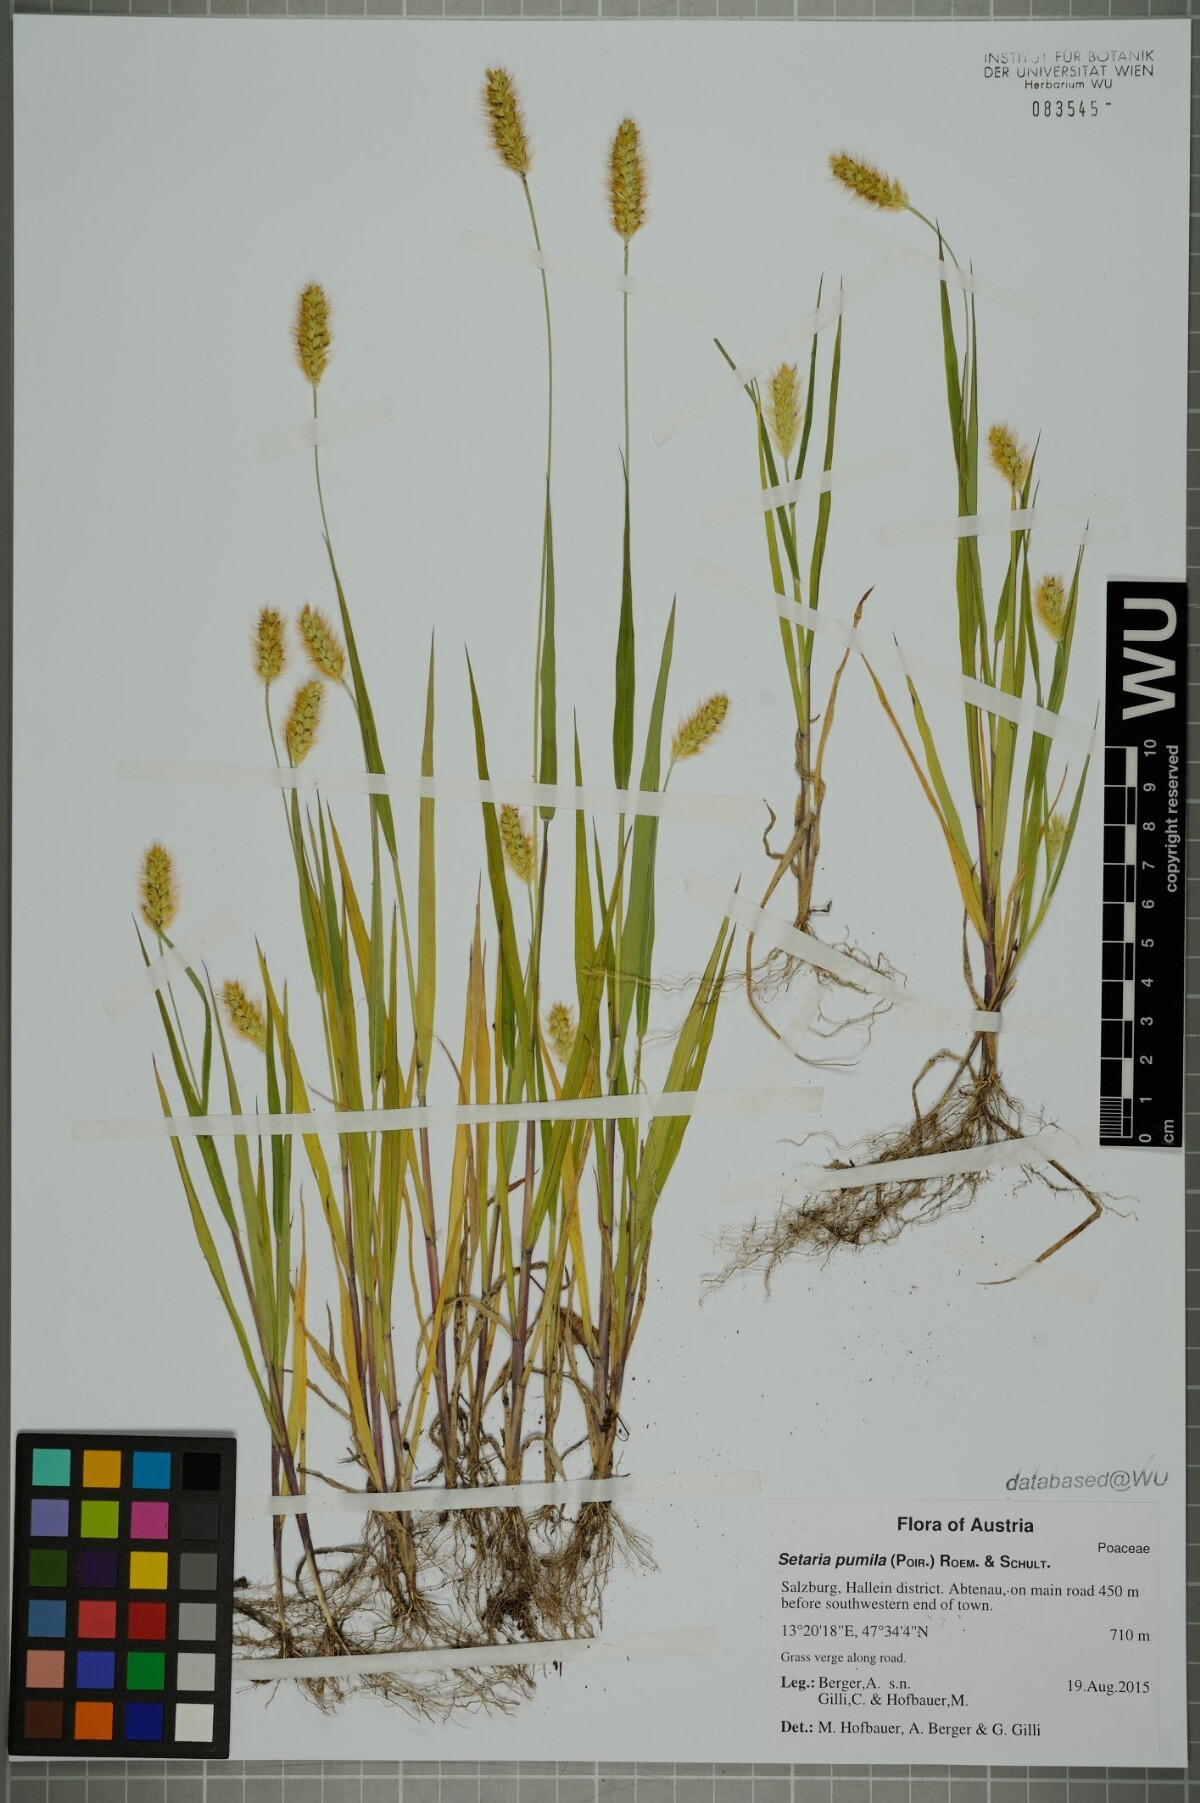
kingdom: Plantae
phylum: Tracheophyta
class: Liliopsida
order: Poales
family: Poaceae
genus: Setaria
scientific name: Setaria pumila
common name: Yellow bristle-grass
